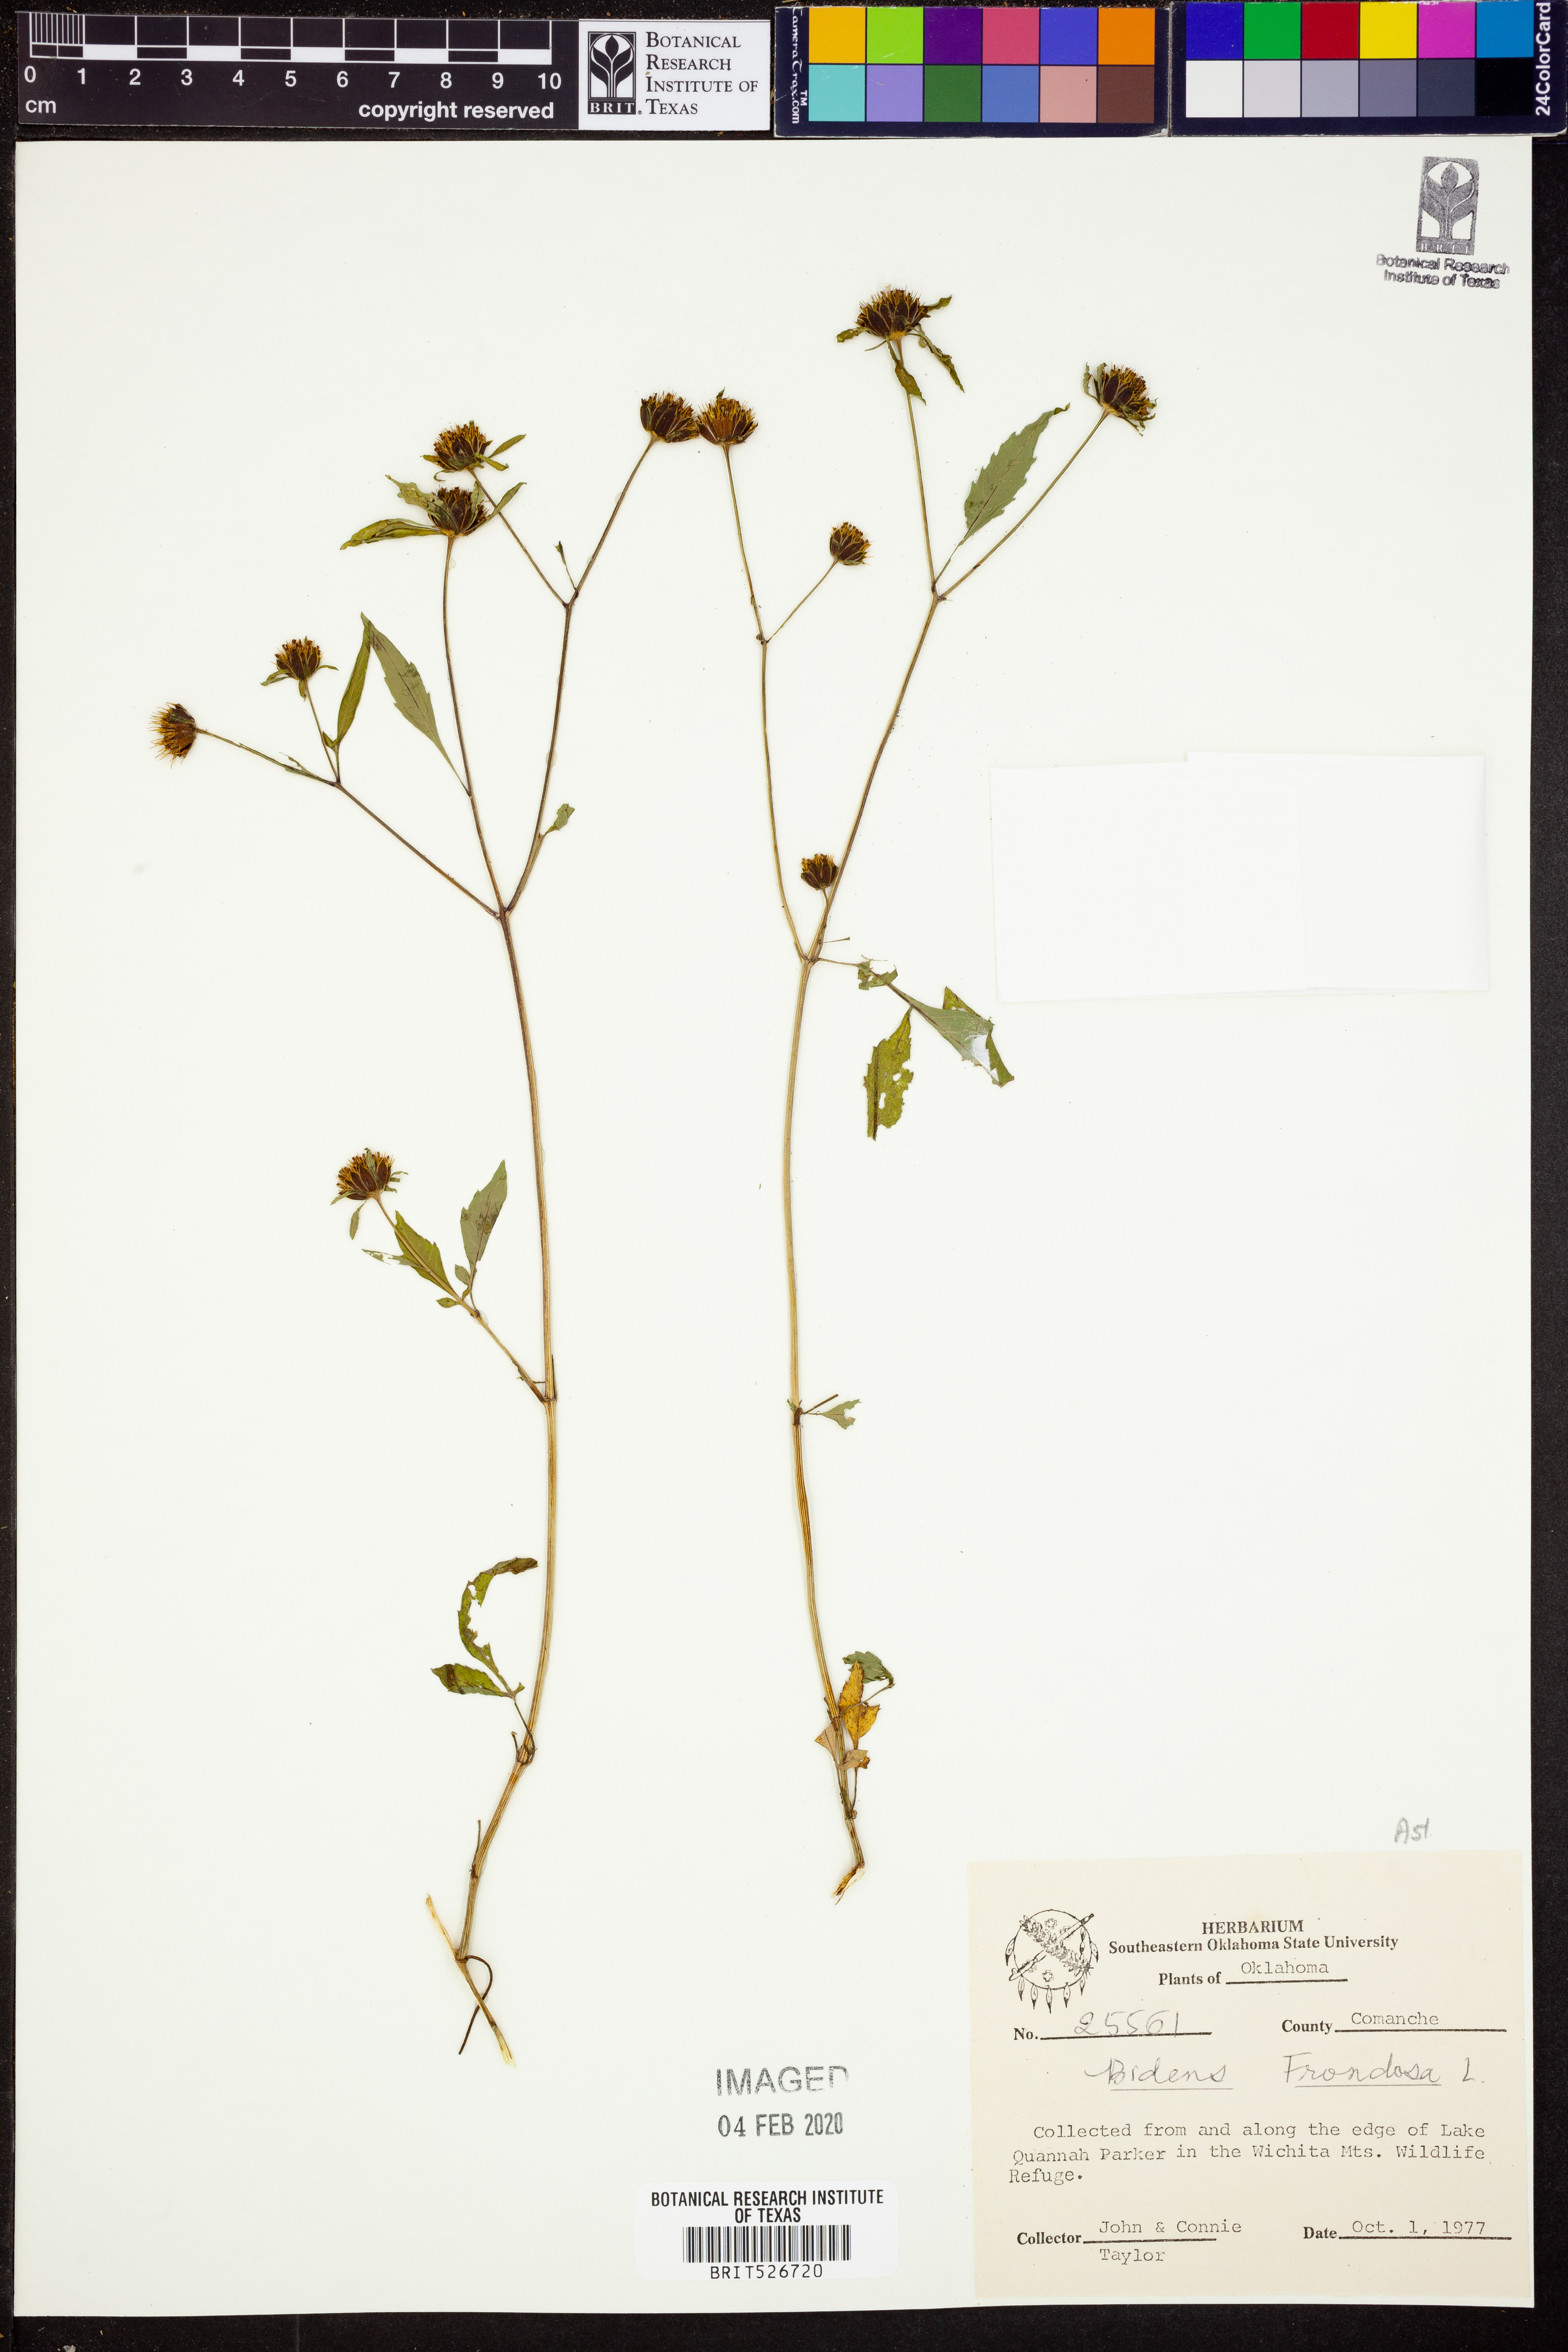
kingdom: Plantae
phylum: Tracheophyta
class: Magnoliopsida
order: Asterales
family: Asteraceae
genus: Bidens
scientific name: Bidens frondosa
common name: Beggarticks
